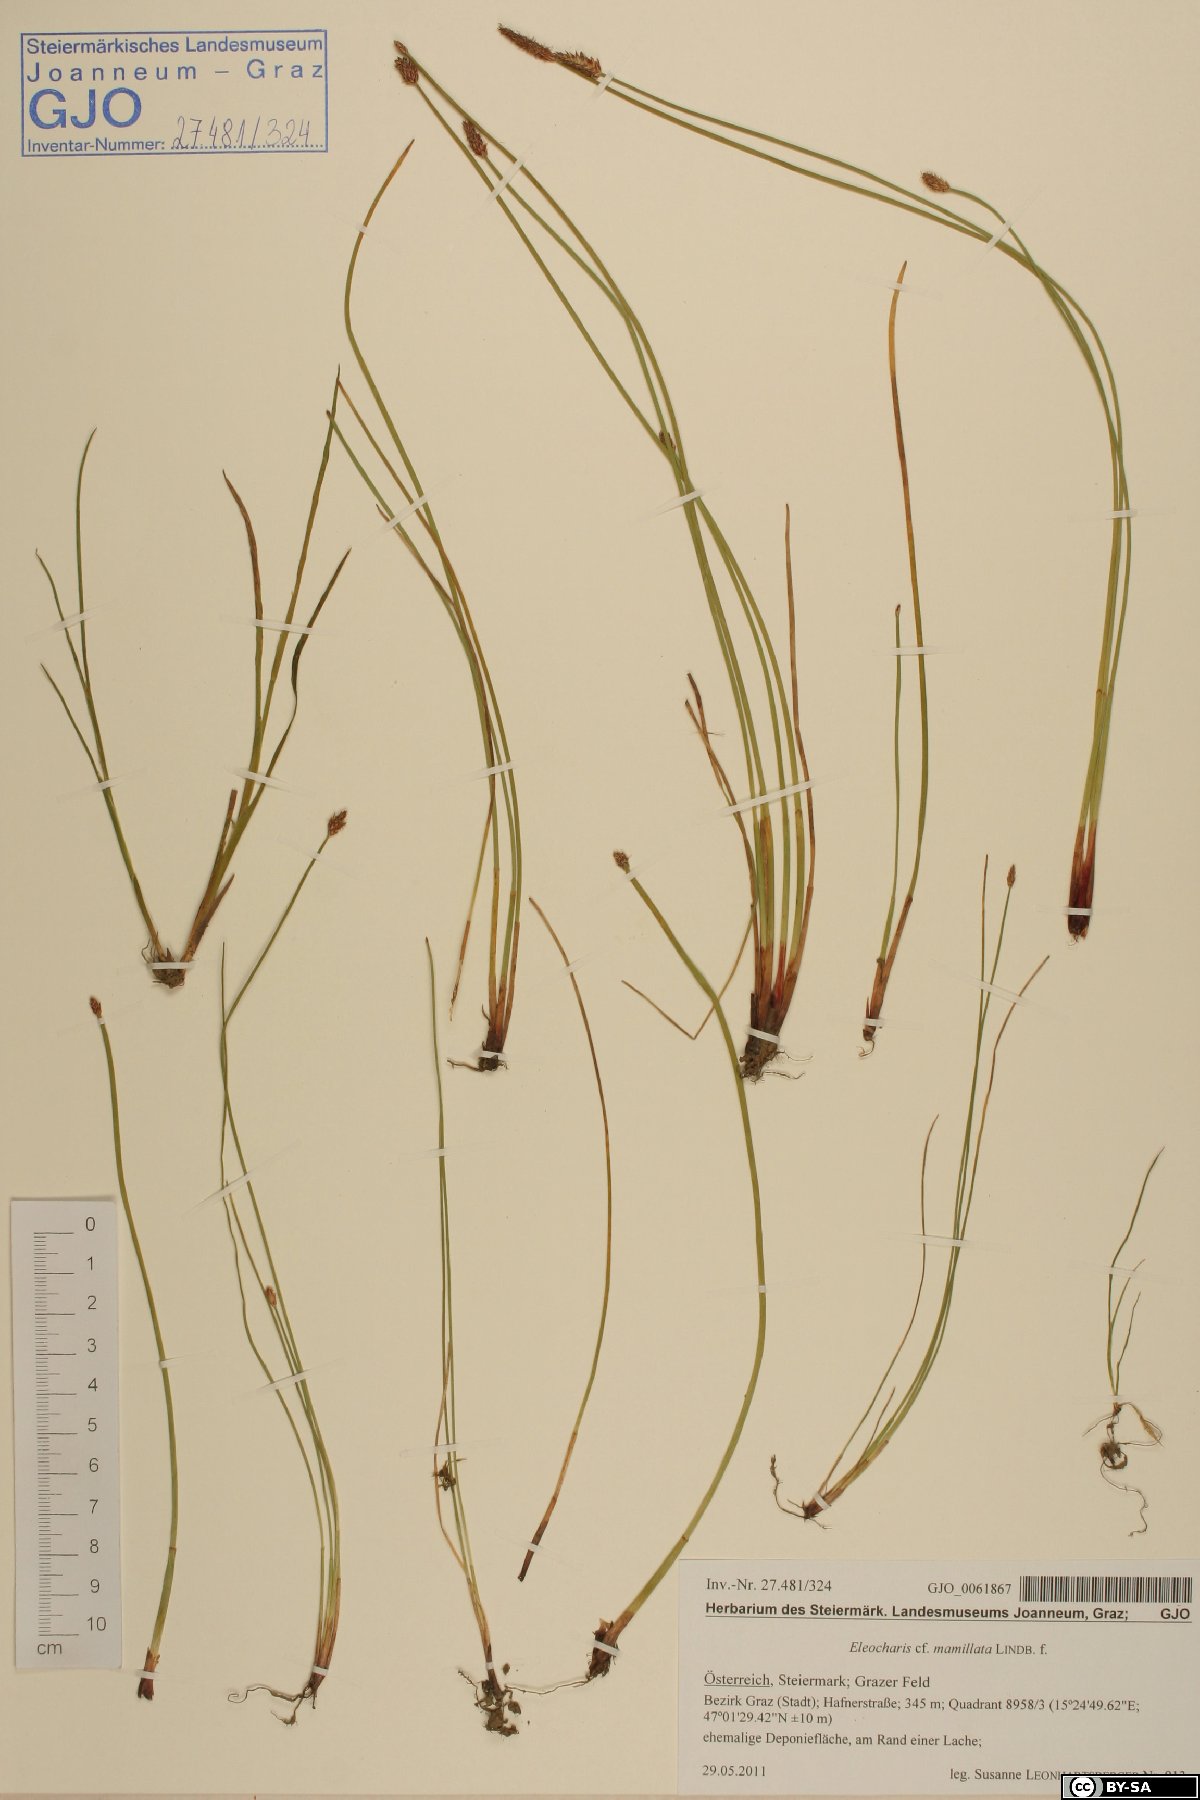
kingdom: Plantae
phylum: Tracheophyta
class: Liliopsida
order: Poales
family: Cyperaceae
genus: Eleocharis
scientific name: Eleocharis mamillata
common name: Northern spike-rush
